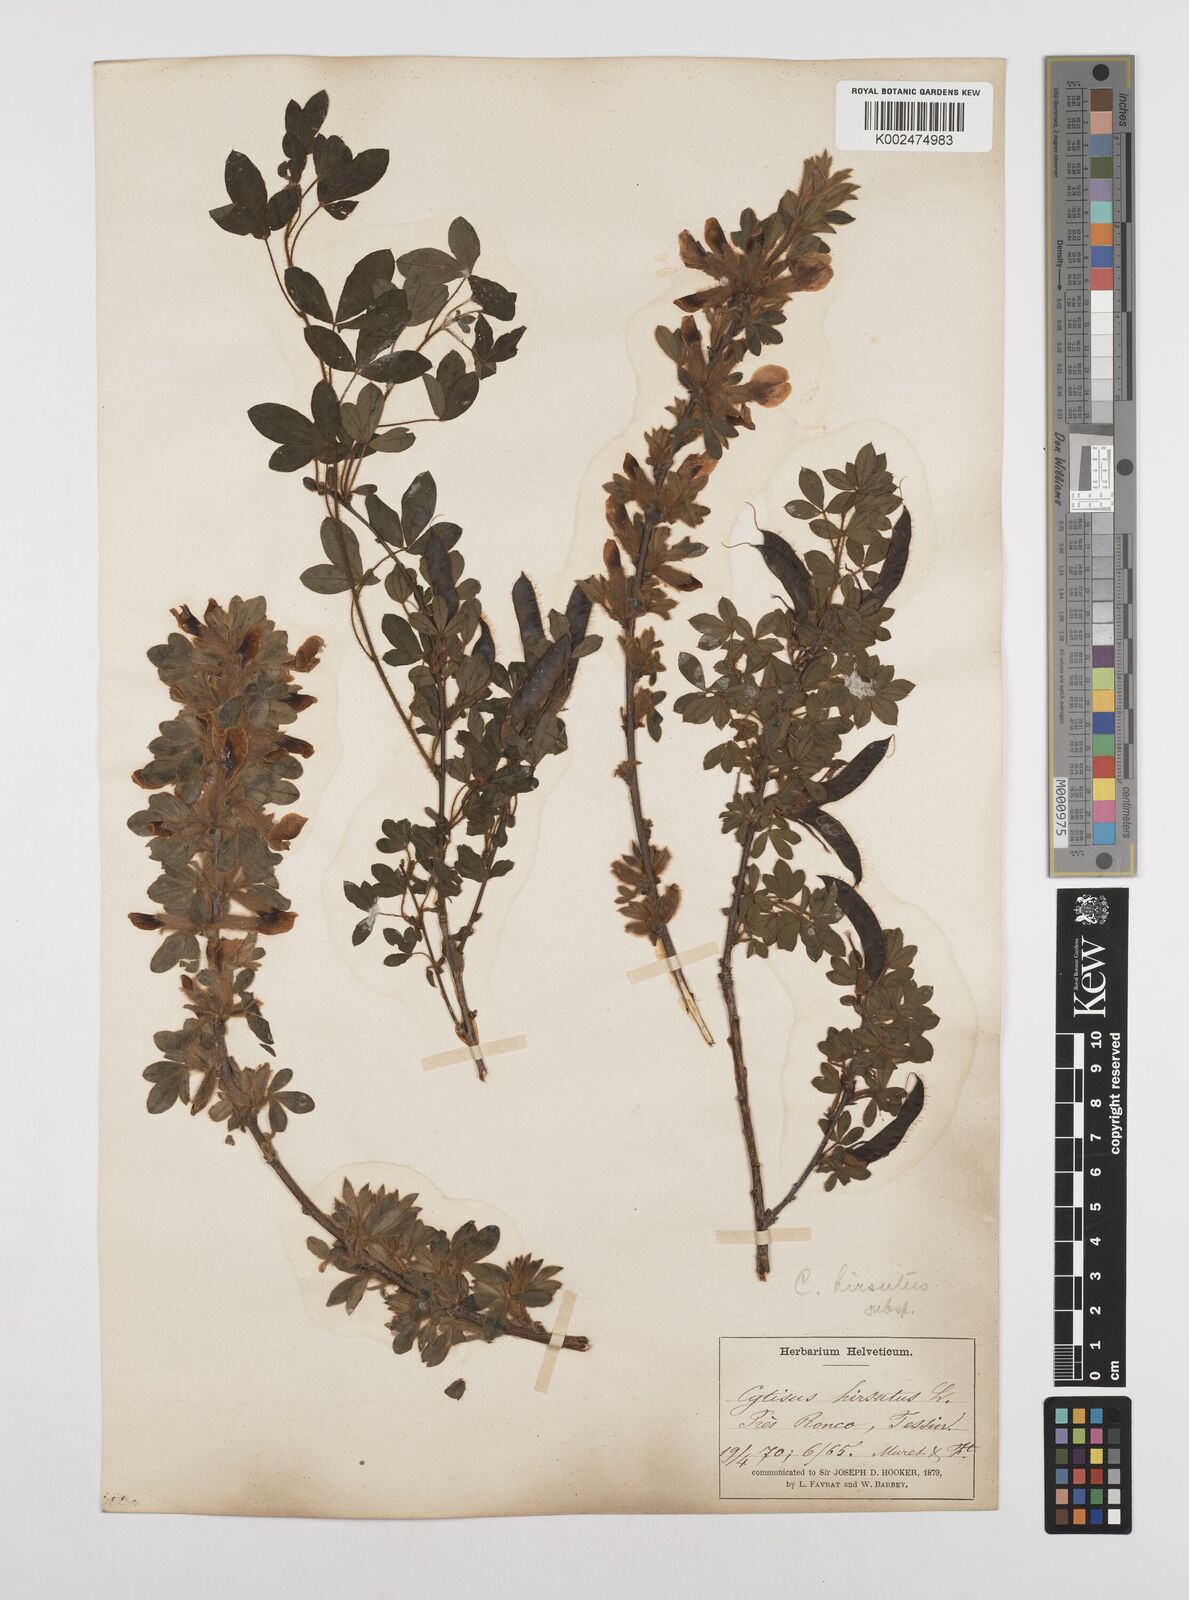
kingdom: Plantae
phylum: Tracheophyta
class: Magnoliopsida
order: Fabales
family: Fabaceae
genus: Chamaecytisus
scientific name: Chamaecytisus hirsutus
